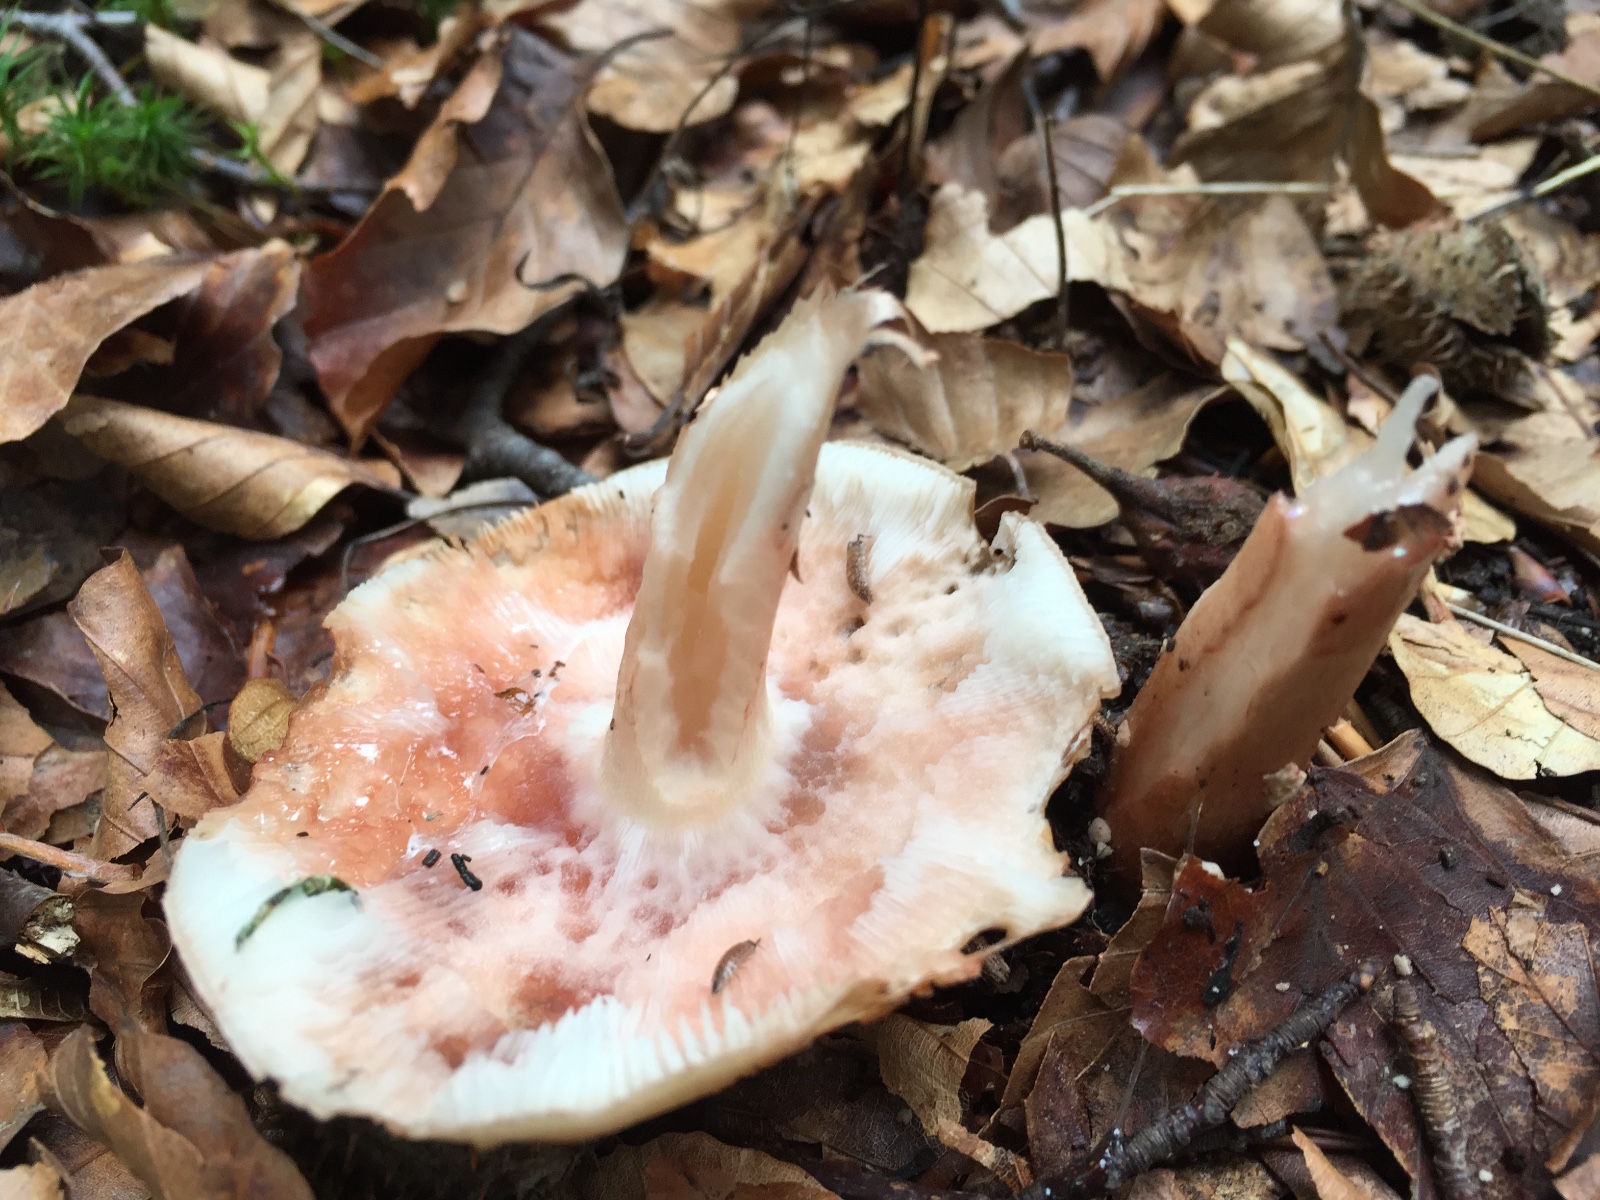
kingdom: Fungi
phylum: Basidiomycota
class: Agaricomycetes
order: Agaricales
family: Amanitaceae
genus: Amanita
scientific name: Amanita rubescens
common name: rødmende fluesvamp
